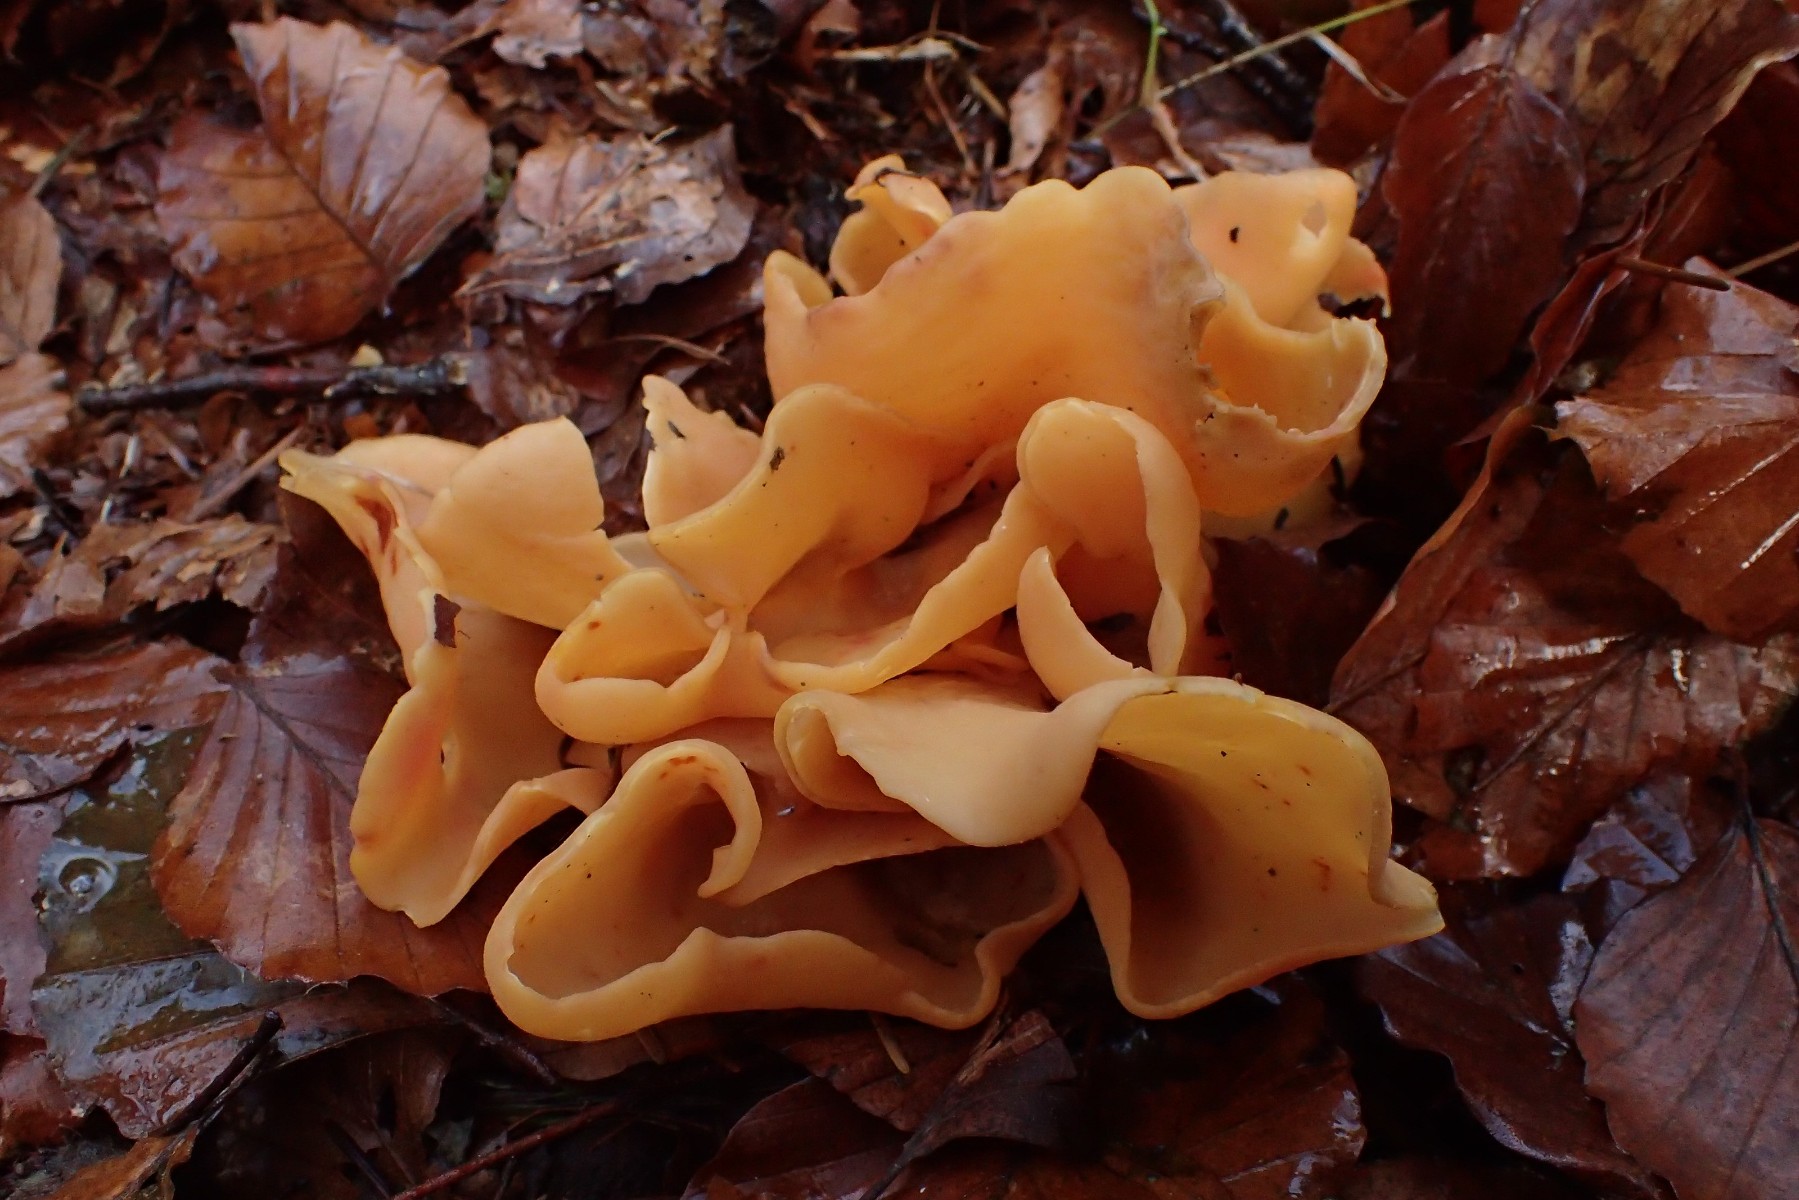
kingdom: Fungi
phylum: Ascomycota
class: Pezizomycetes
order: Pezizales
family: Otideaceae
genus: Otidea
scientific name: Otidea onotica
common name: æsel-ørebæger
